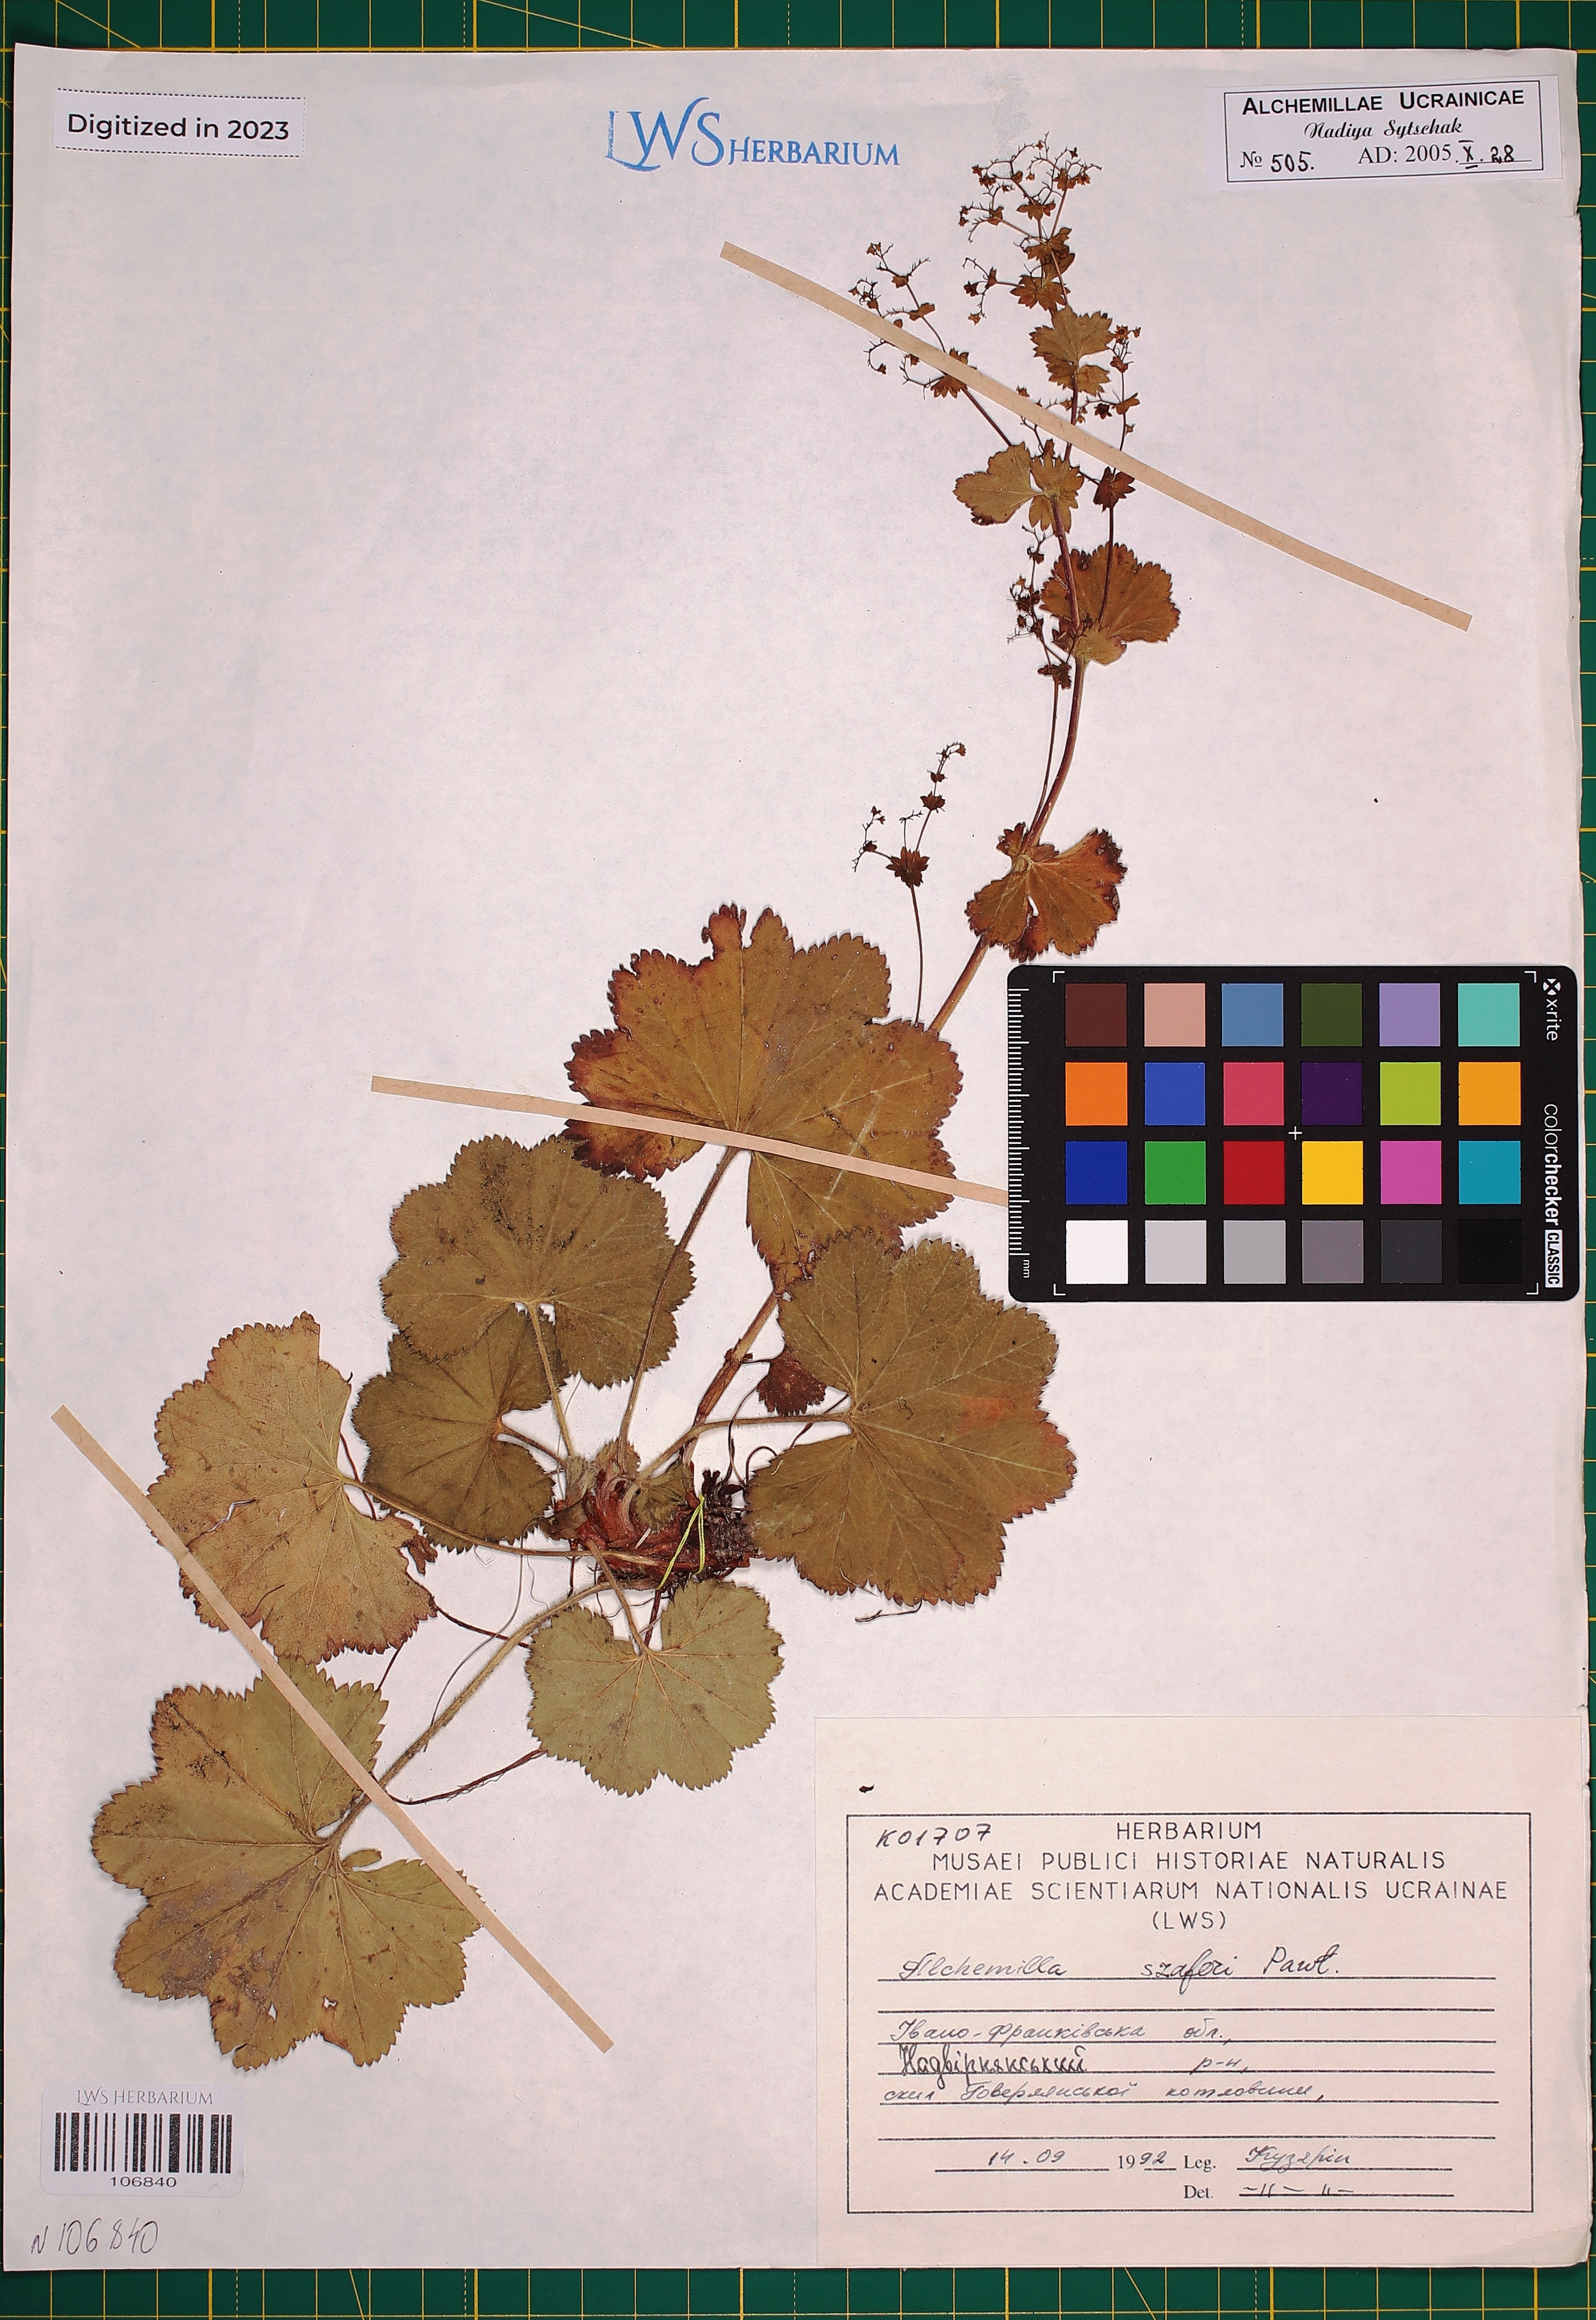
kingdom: Plantae
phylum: Tracheophyta
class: Magnoliopsida
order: Rosales
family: Rosaceae
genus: Alchemilla
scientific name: Alchemilla szaferi
